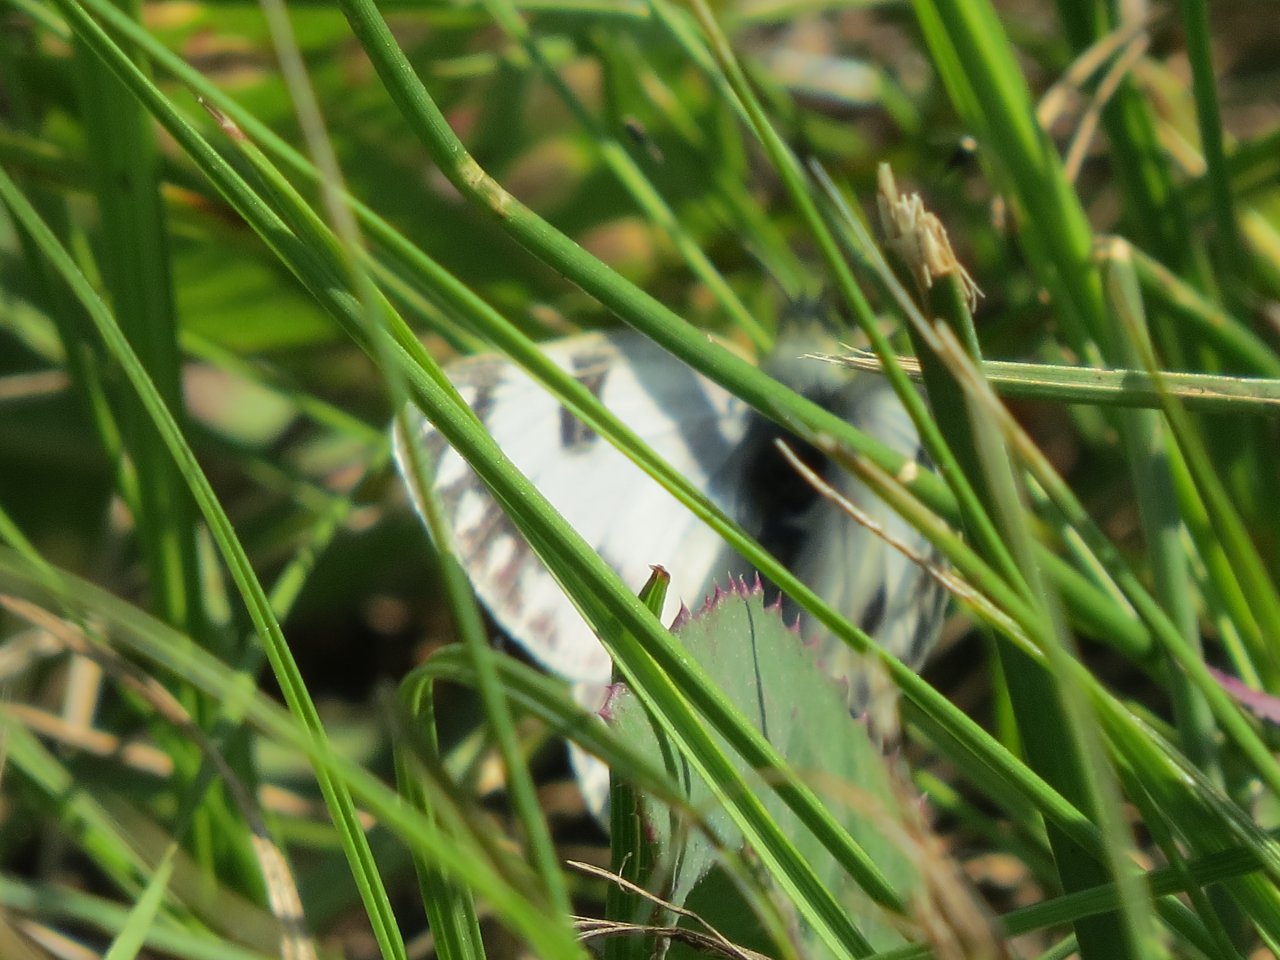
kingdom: Animalia
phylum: Arthropoda
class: Insecta
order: Lepidoptera
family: Pieridae
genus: Pontia
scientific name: Pontia occidentalis
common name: Western White
